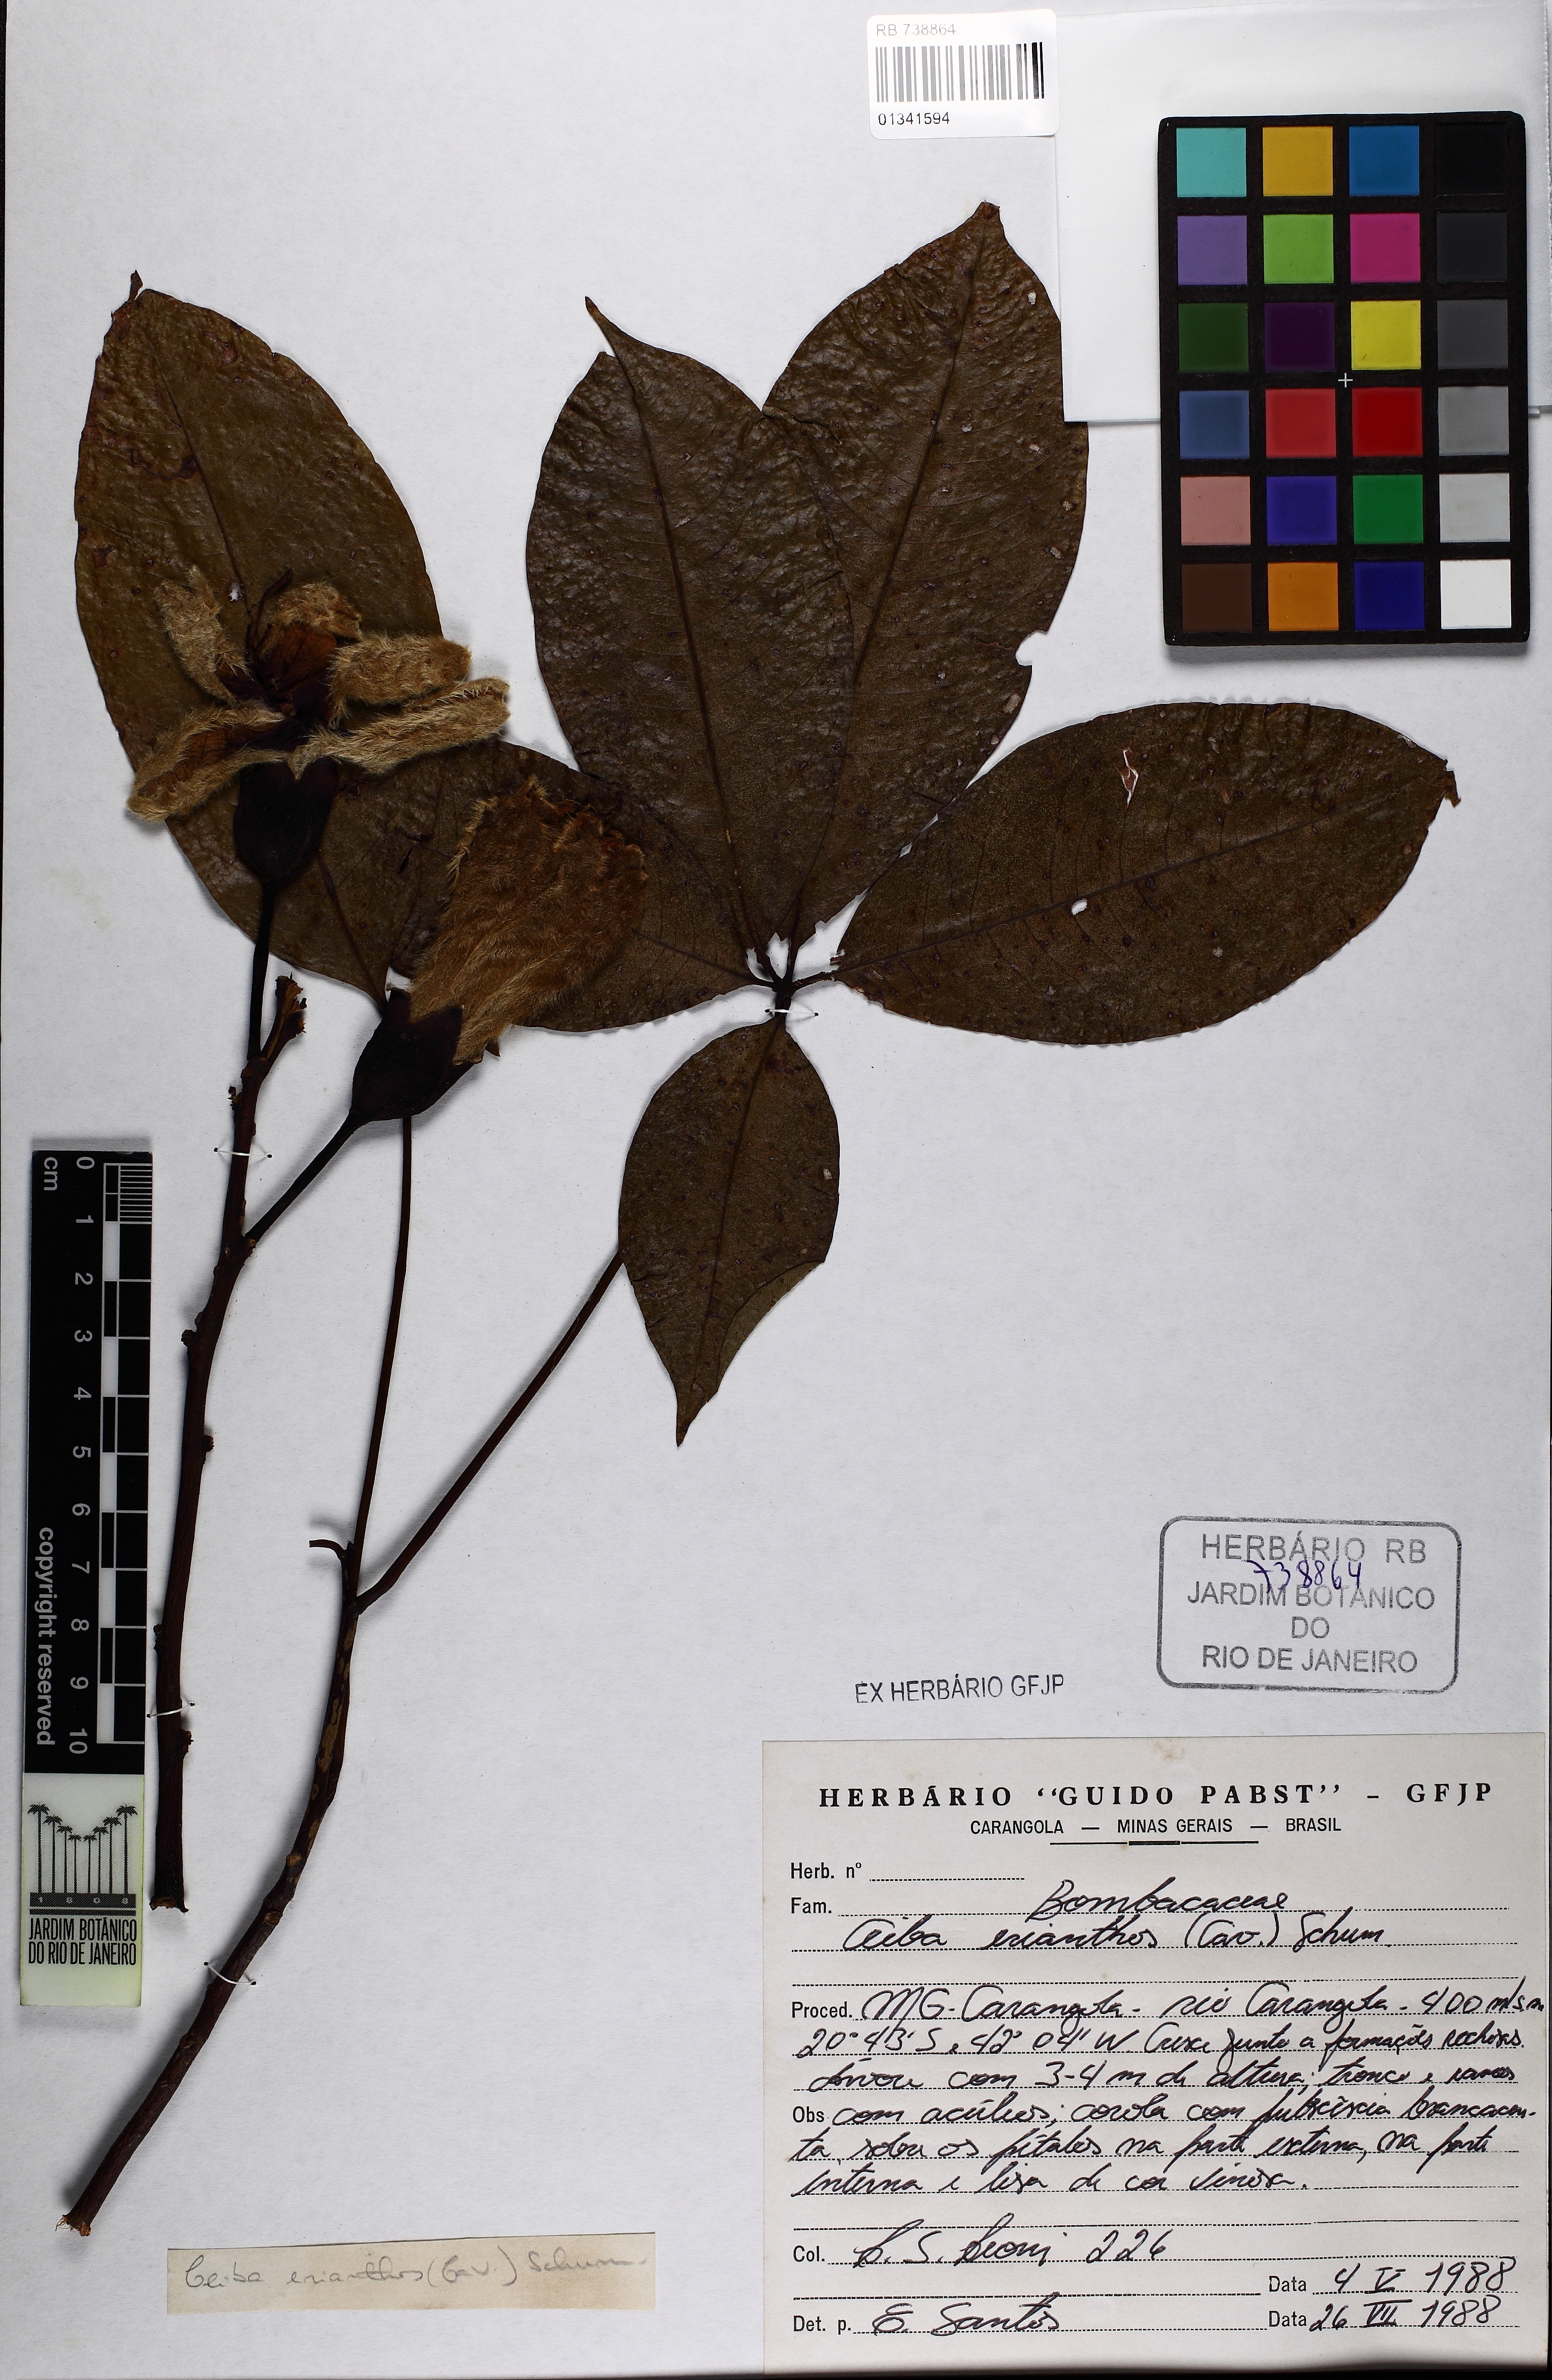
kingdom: Plantae
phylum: Tracheophyta
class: Magnoliopsida
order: Malvales
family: Malvaceae
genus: Ceiba
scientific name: Ceiba erianthos
